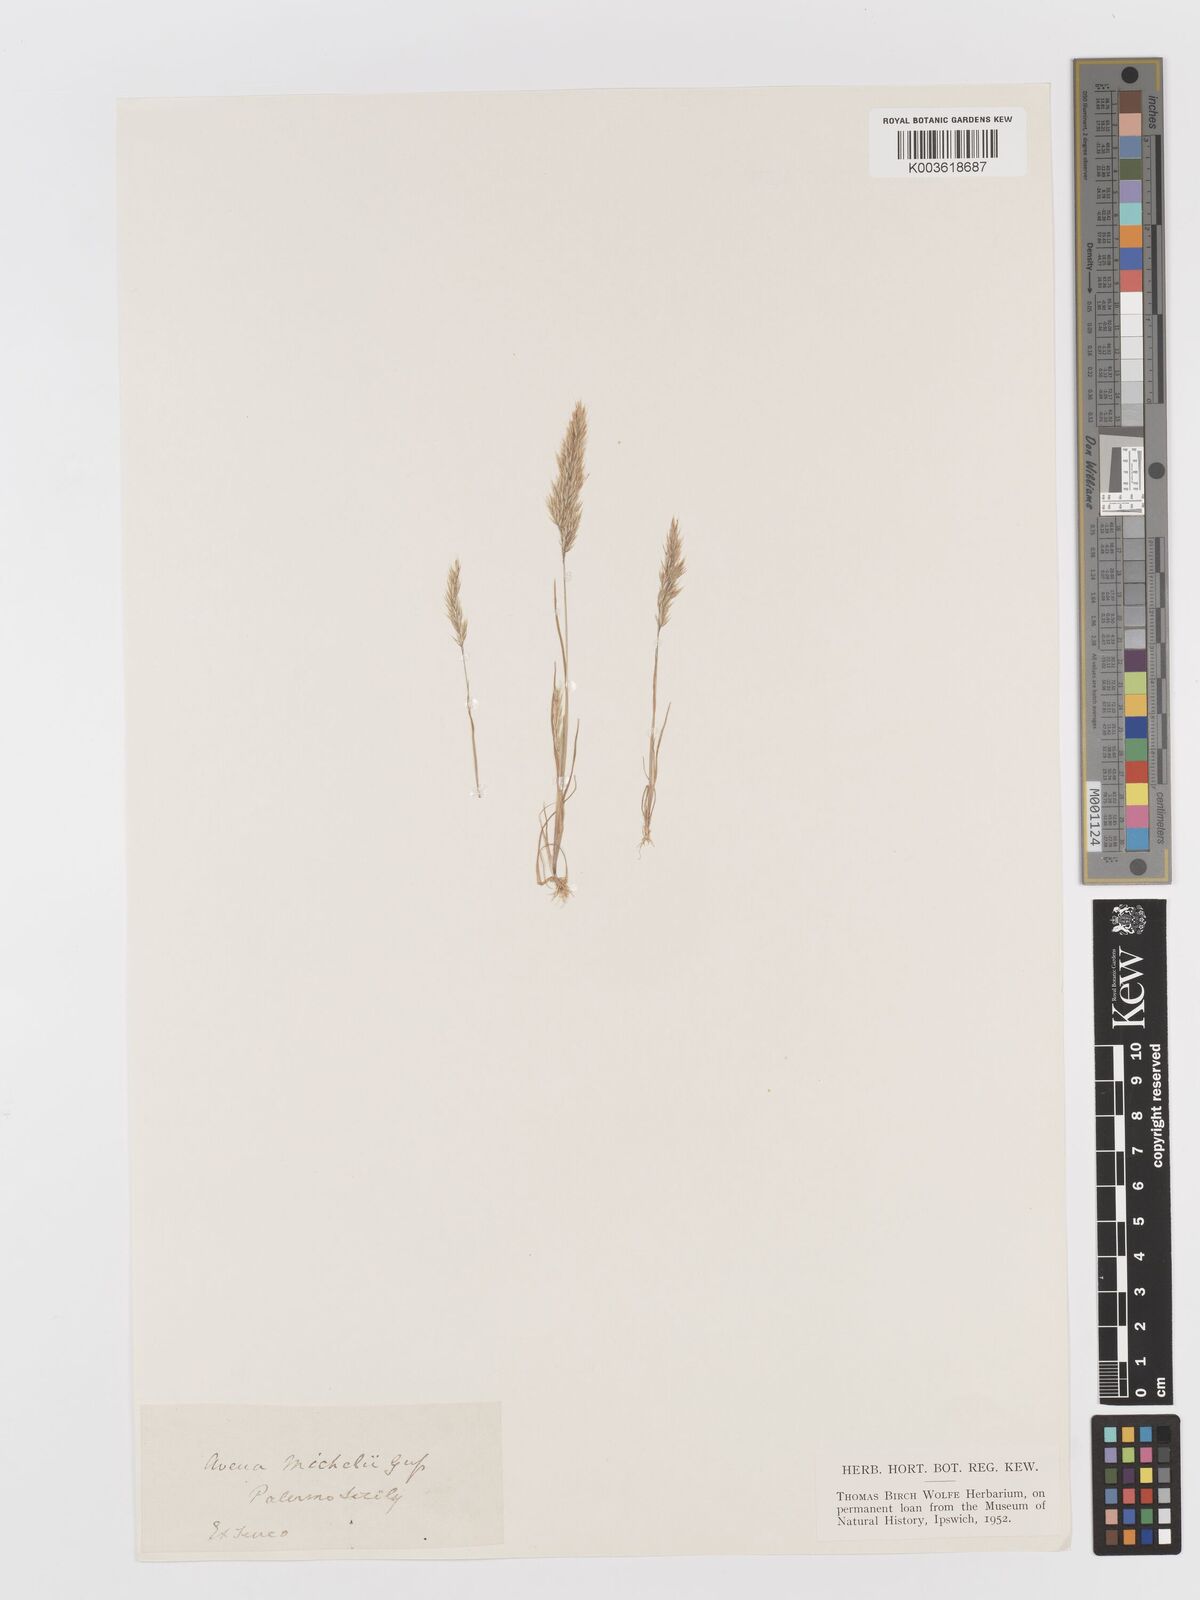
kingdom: Plantae
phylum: Tracheophyta
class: Liliopsida
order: Poales
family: Poaceae
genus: Avellinia
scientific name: Avellinia festucoides
